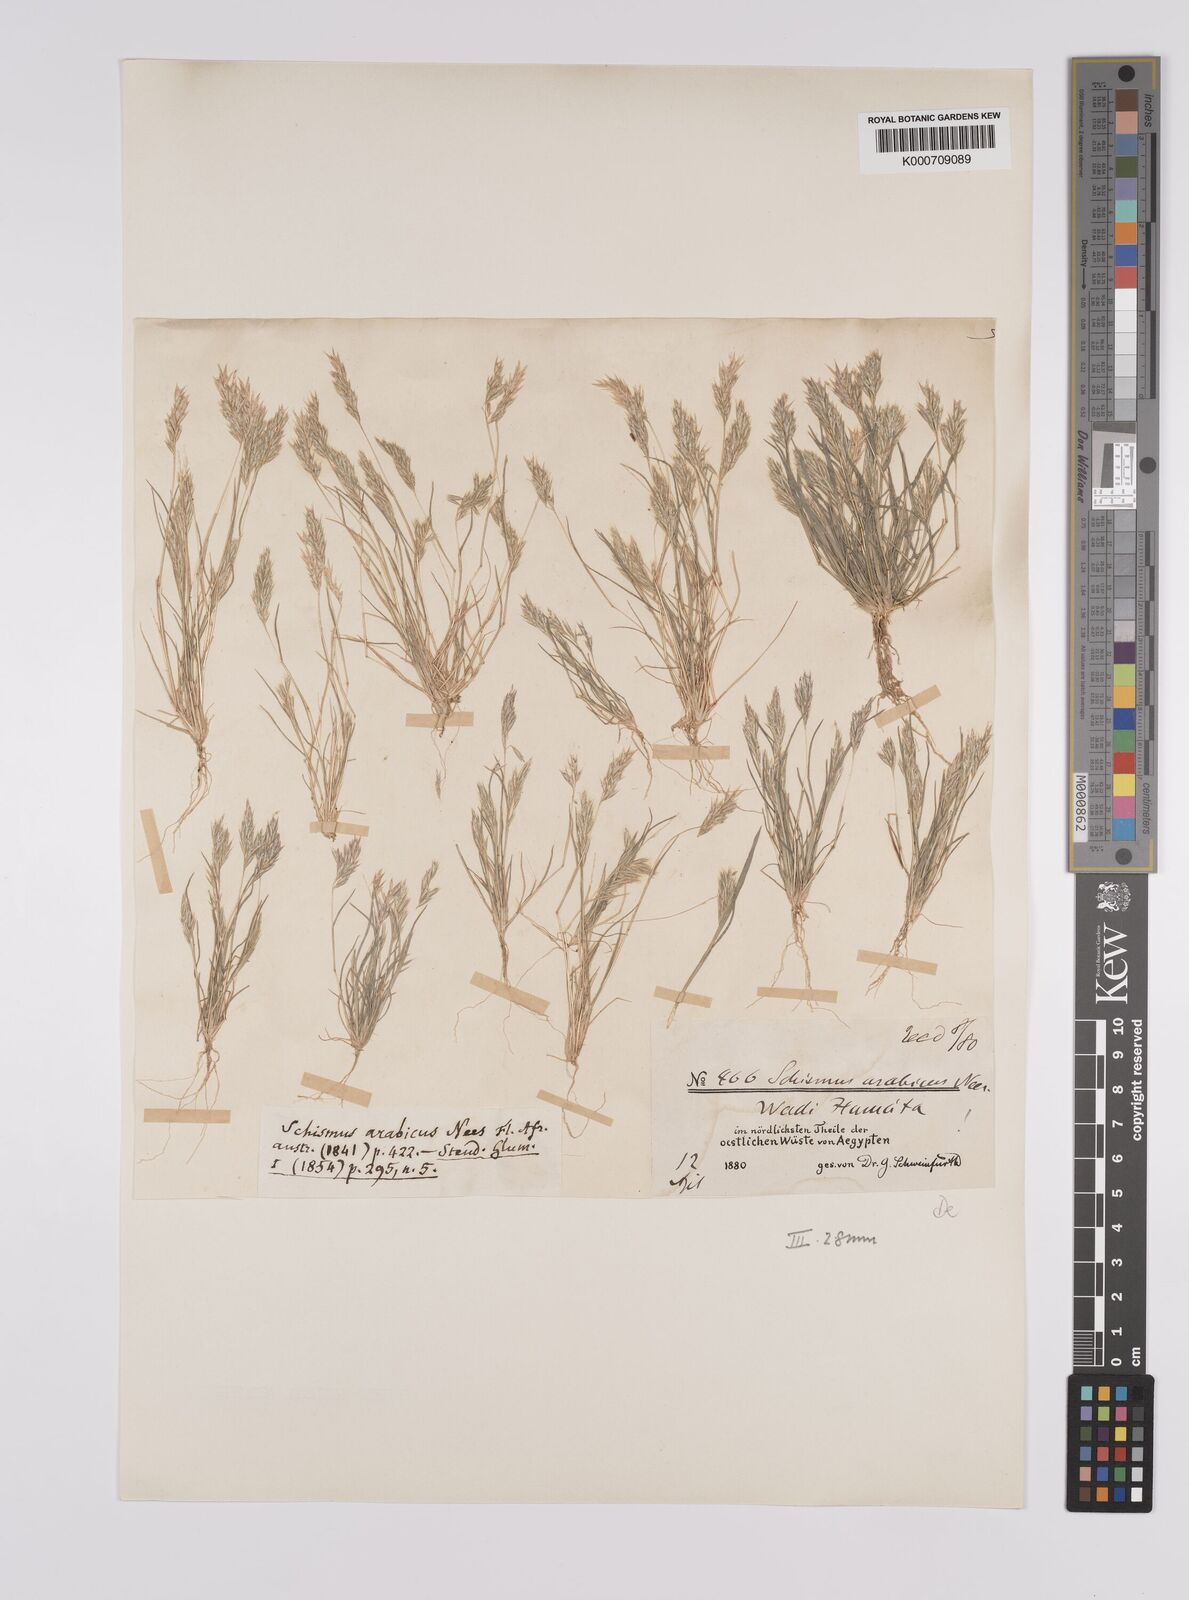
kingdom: Plantae
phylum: Tracheophyta
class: Liliopsida
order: Poales
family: Poaceae
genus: Schismus
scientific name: Schismus arabicus
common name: Arabian schismus
